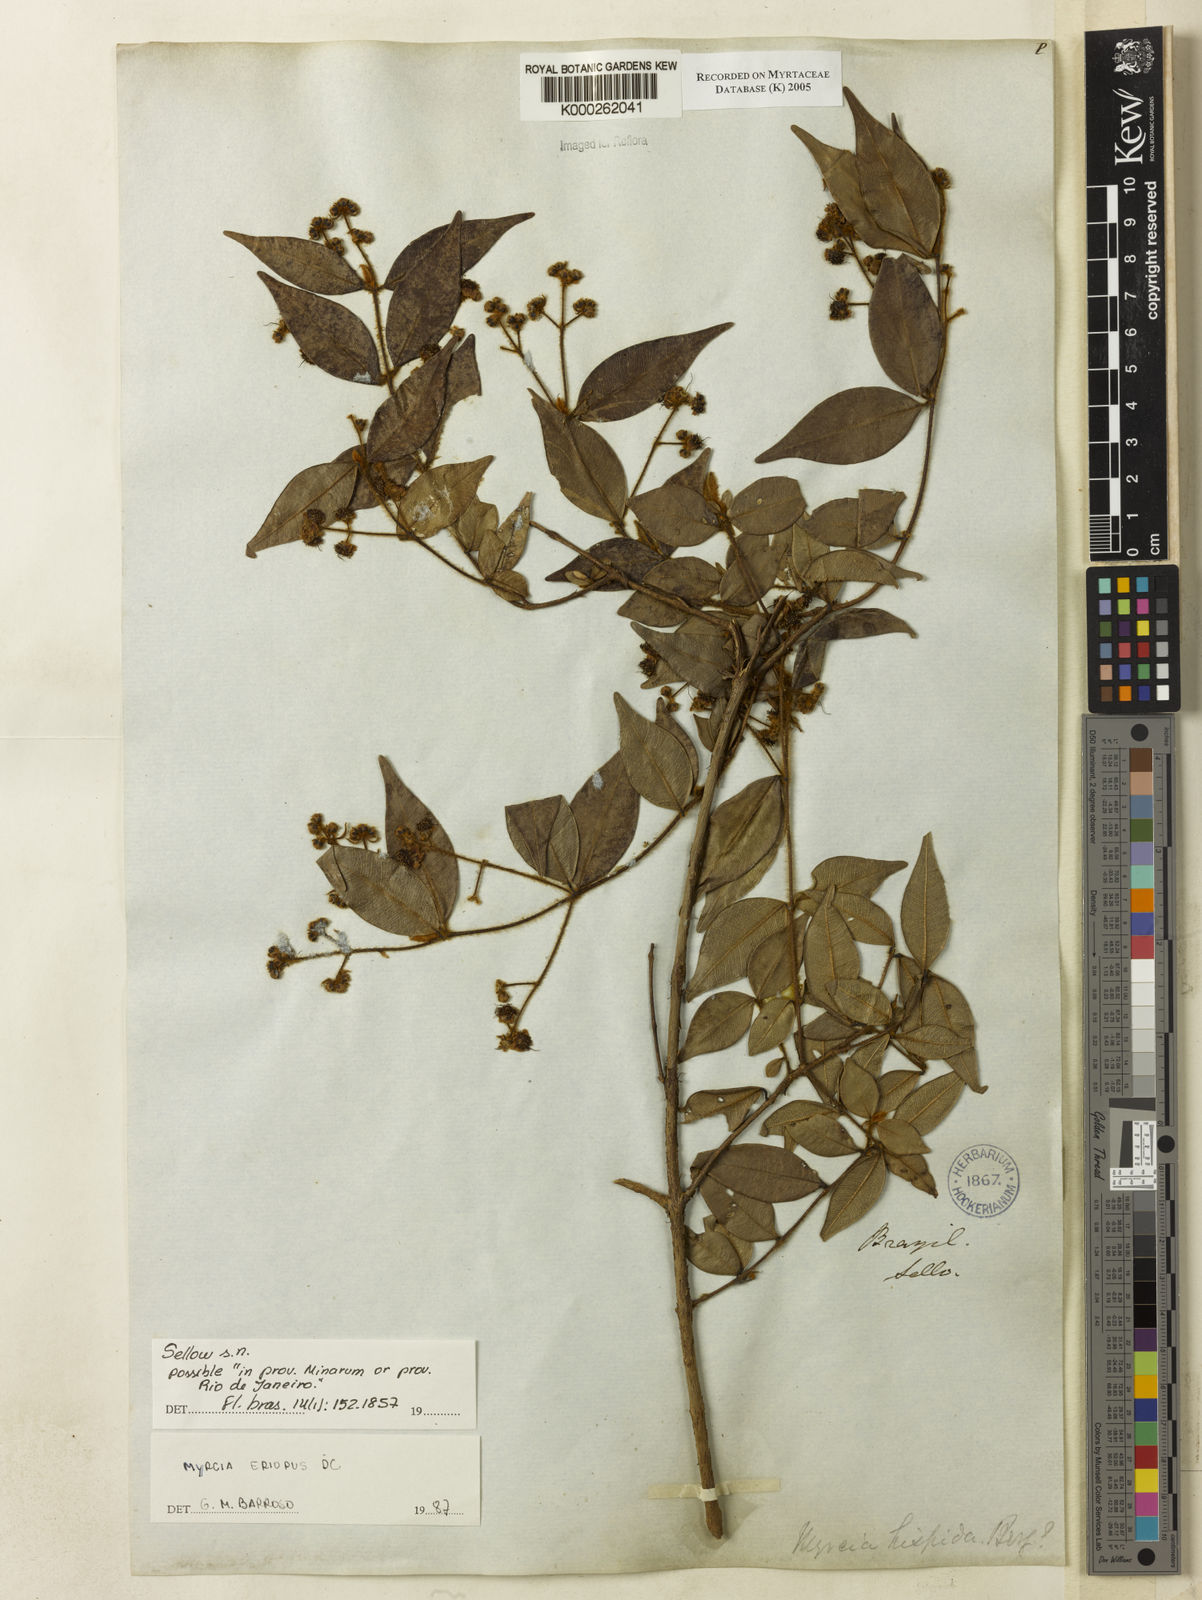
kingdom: Plantae
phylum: Tracheophyta
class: Magnoliopsida
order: Myrtales
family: Myrtaceae
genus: Myrcia
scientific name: Myrcia eriopus
